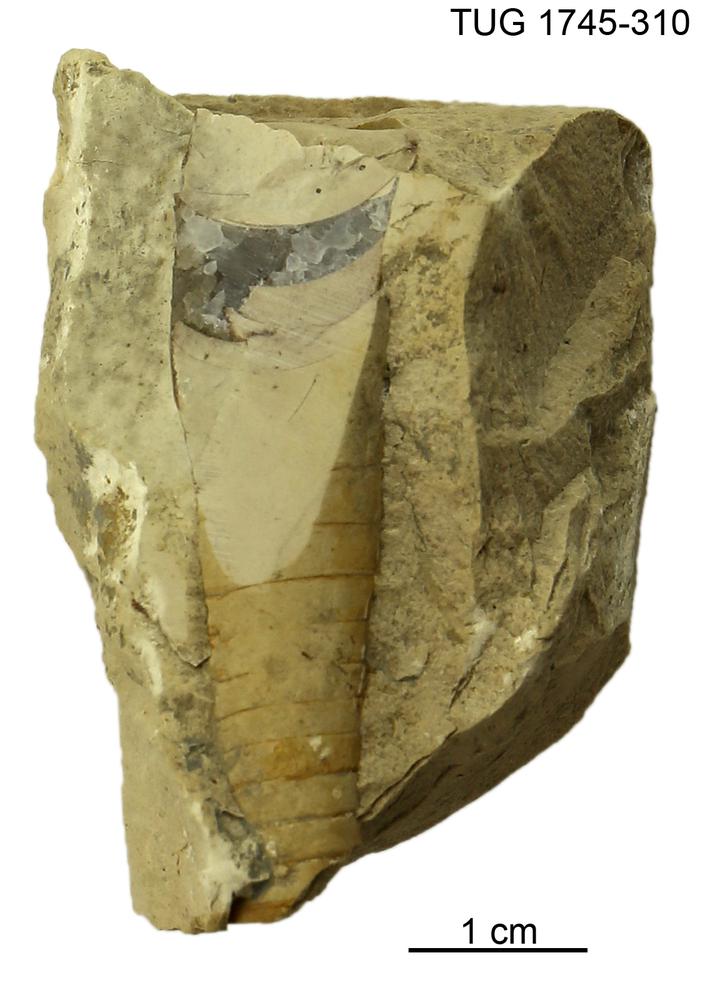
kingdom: Animalia
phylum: Mollusca
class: Cephalopoda
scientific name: Cephalopoda
